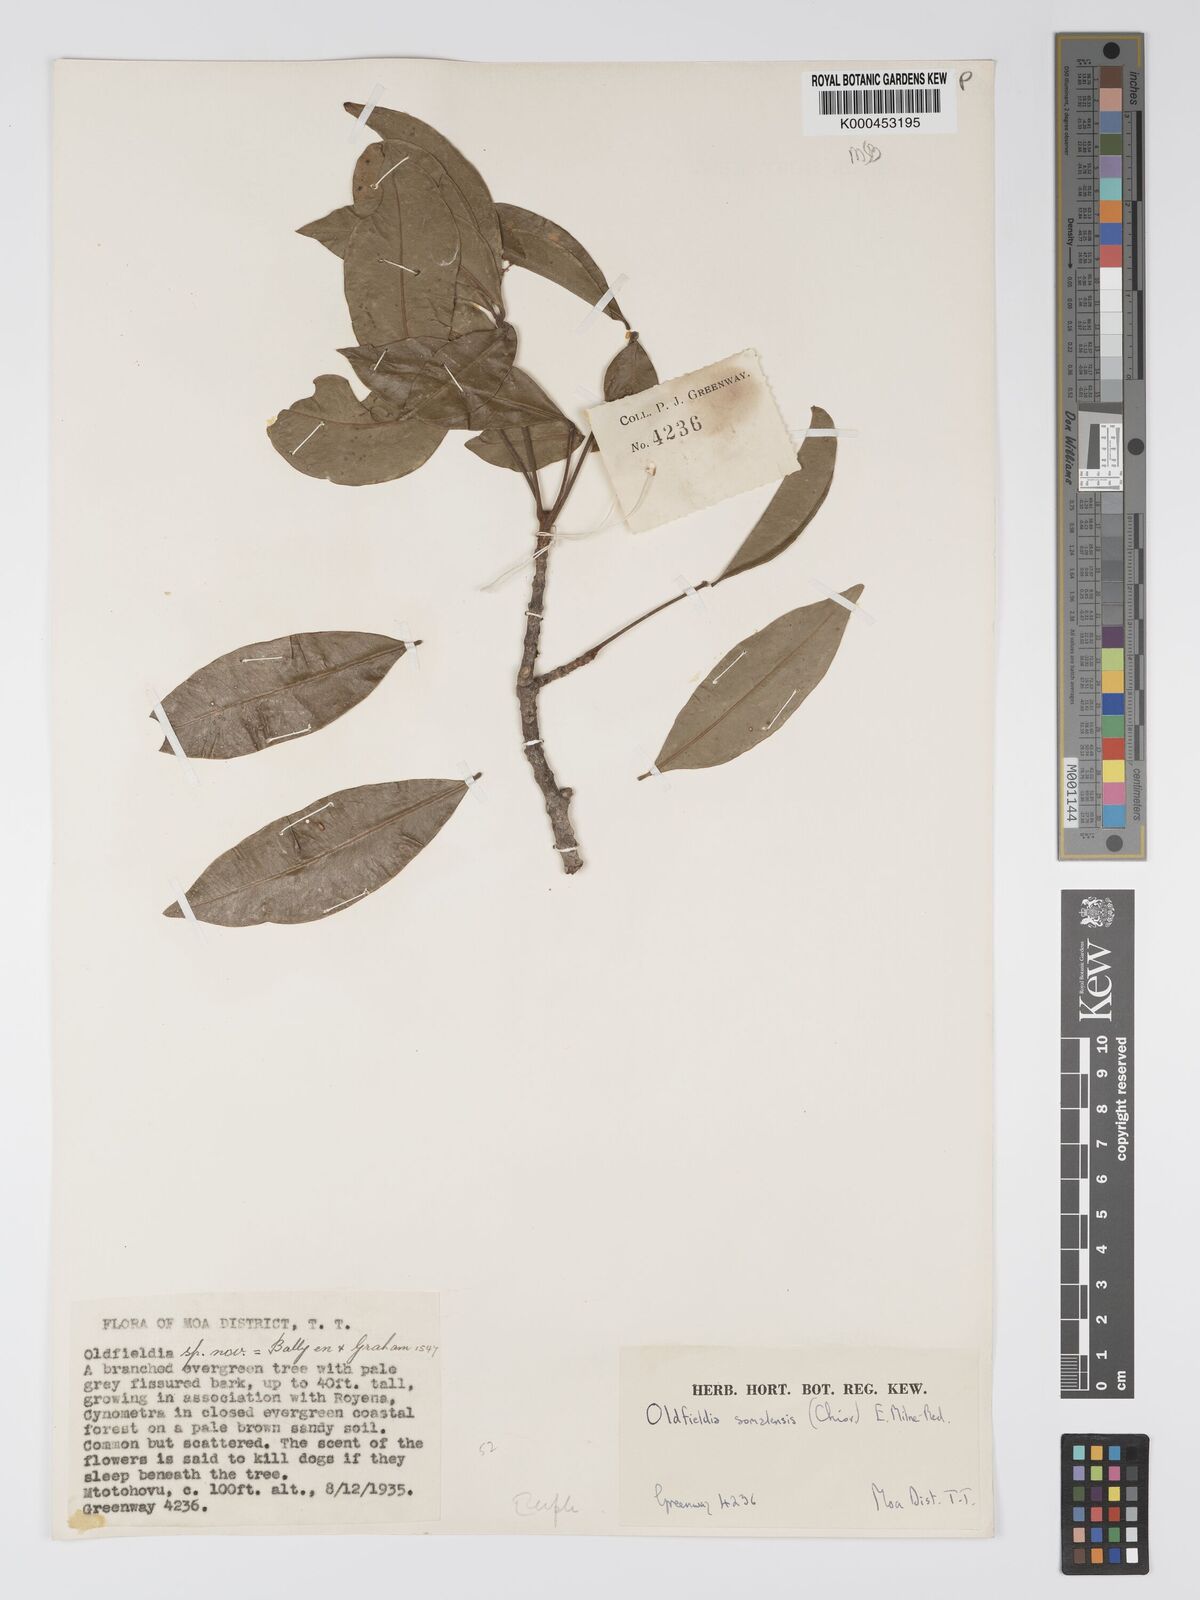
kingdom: Plantae
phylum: Tracheophyta
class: Magnoliopsida
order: Malpighiales
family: Picrodendraceae
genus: Oldfieldia
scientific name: Oldfieldia somalensis
